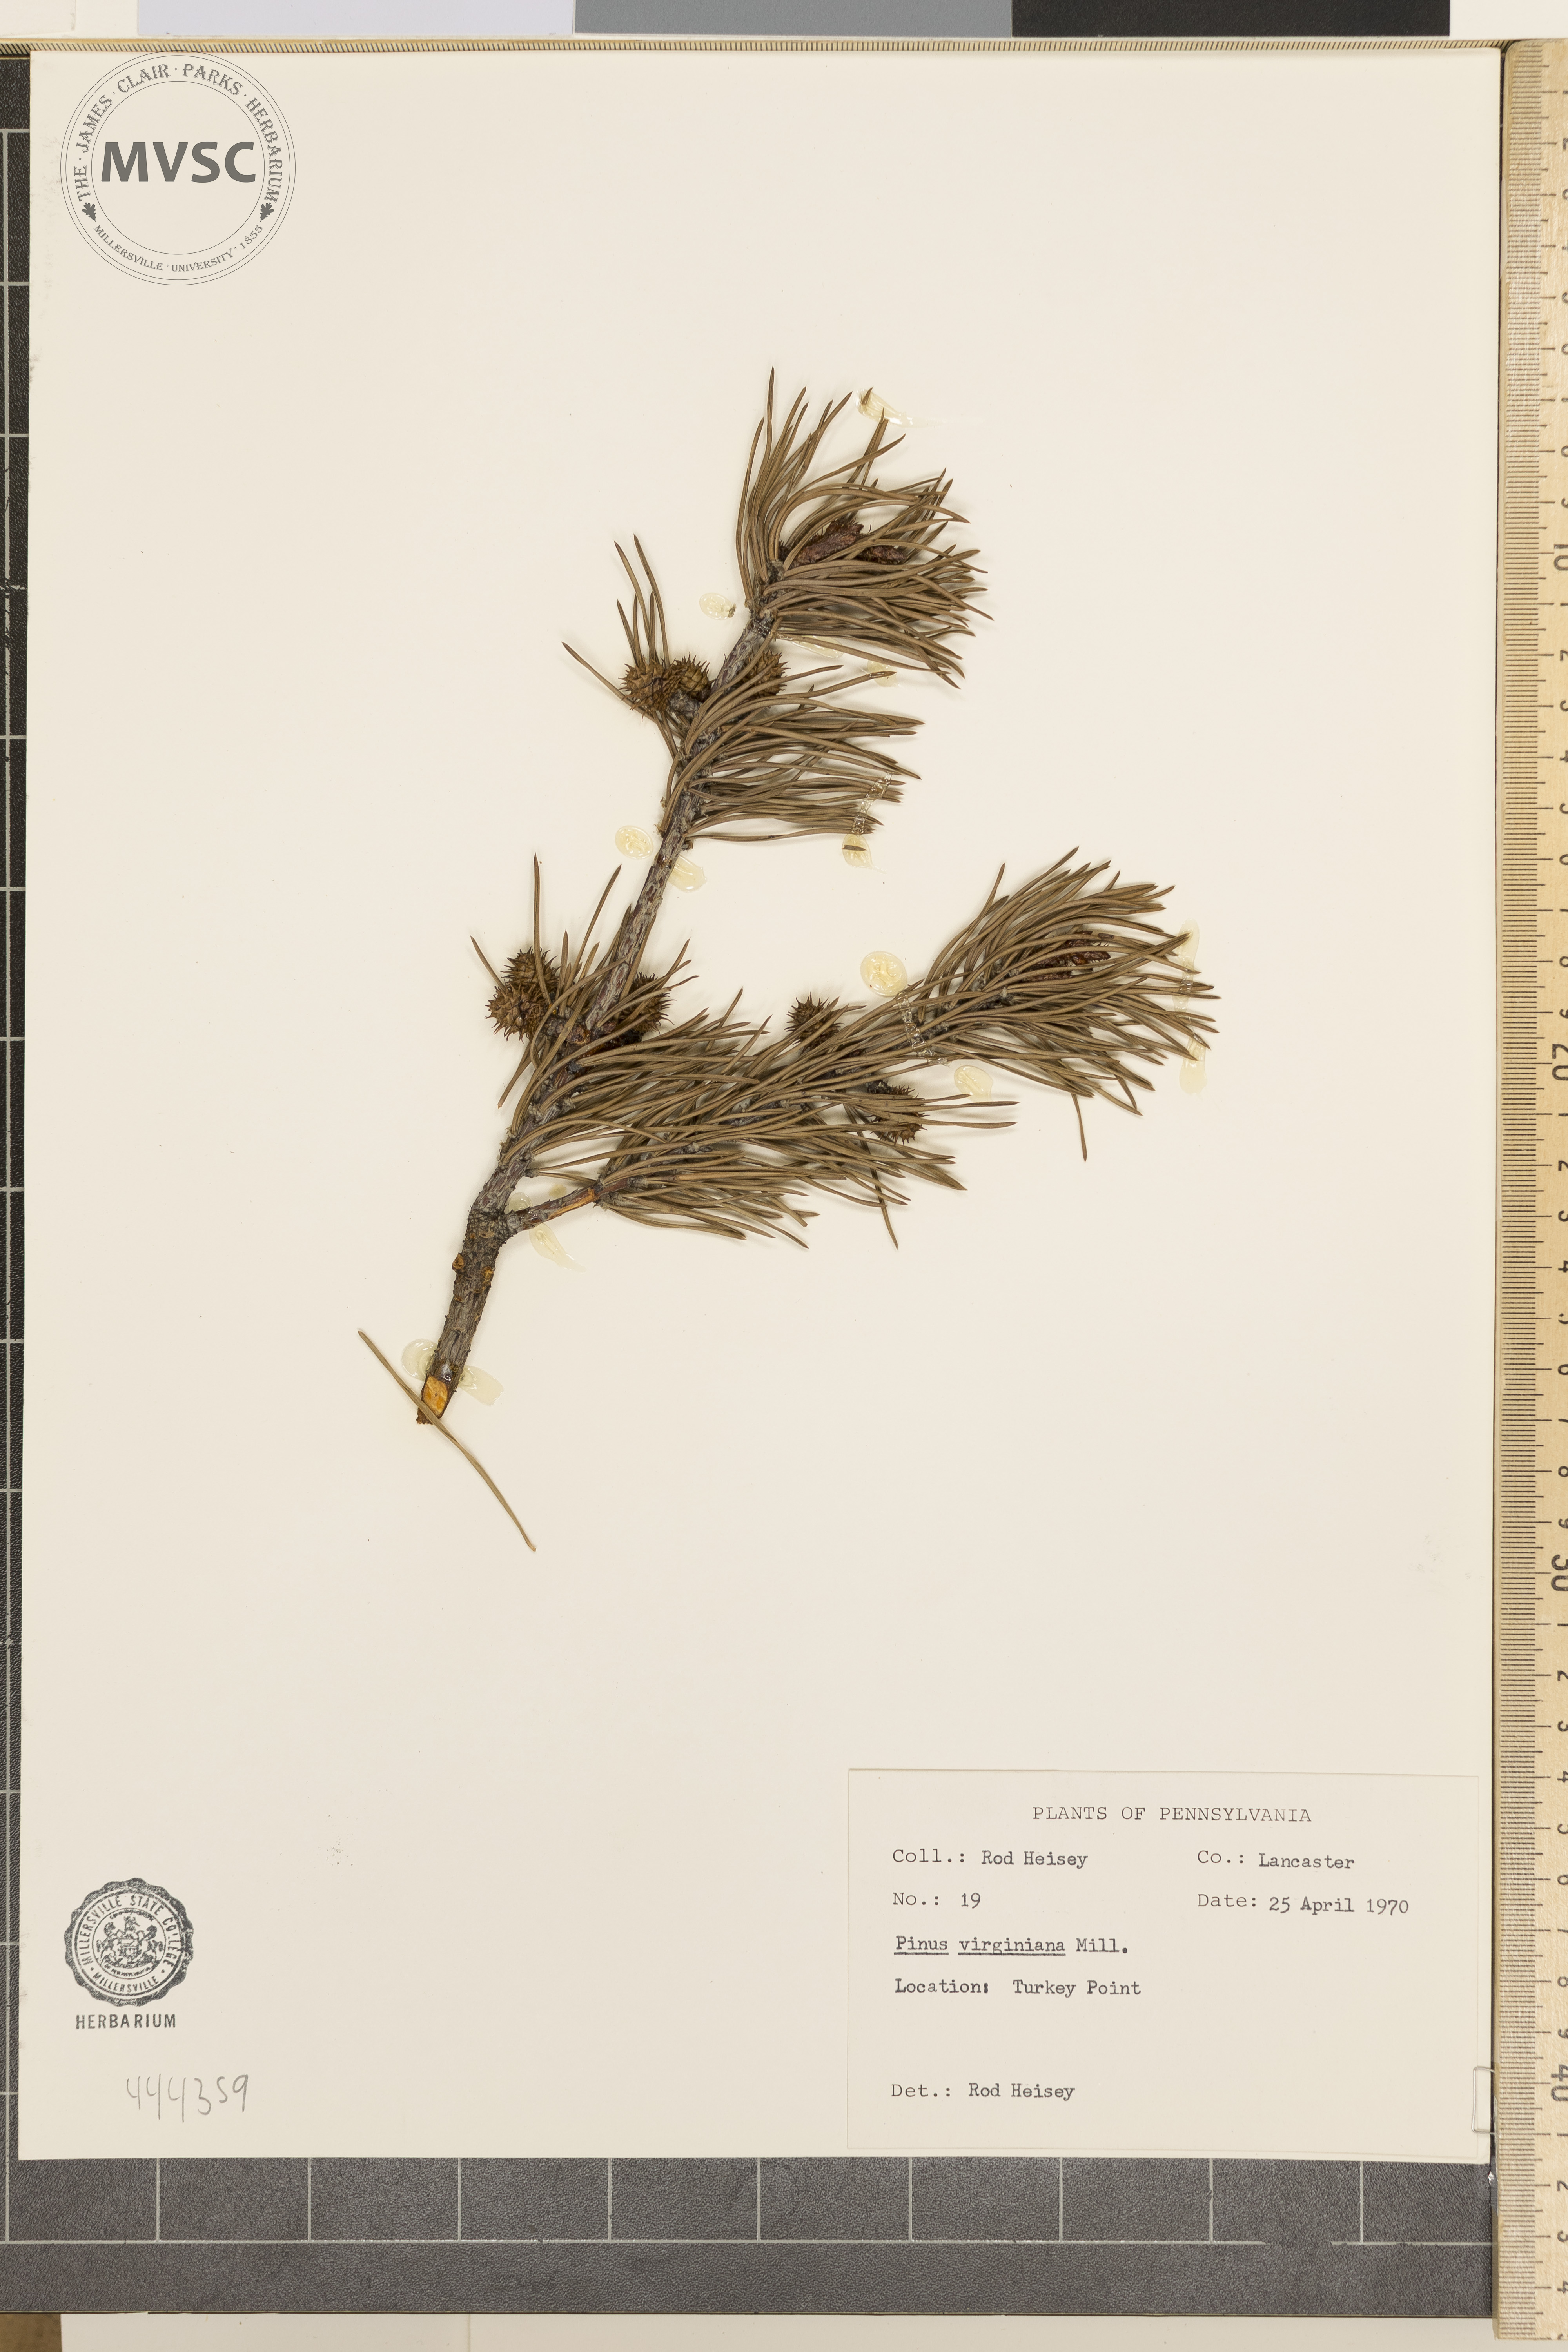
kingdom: Plantae
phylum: Tracheophyta
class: Pinopsida
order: Pinales
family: Pinaceae
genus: Pinus
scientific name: Pinus virginiana
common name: Scrub pine
